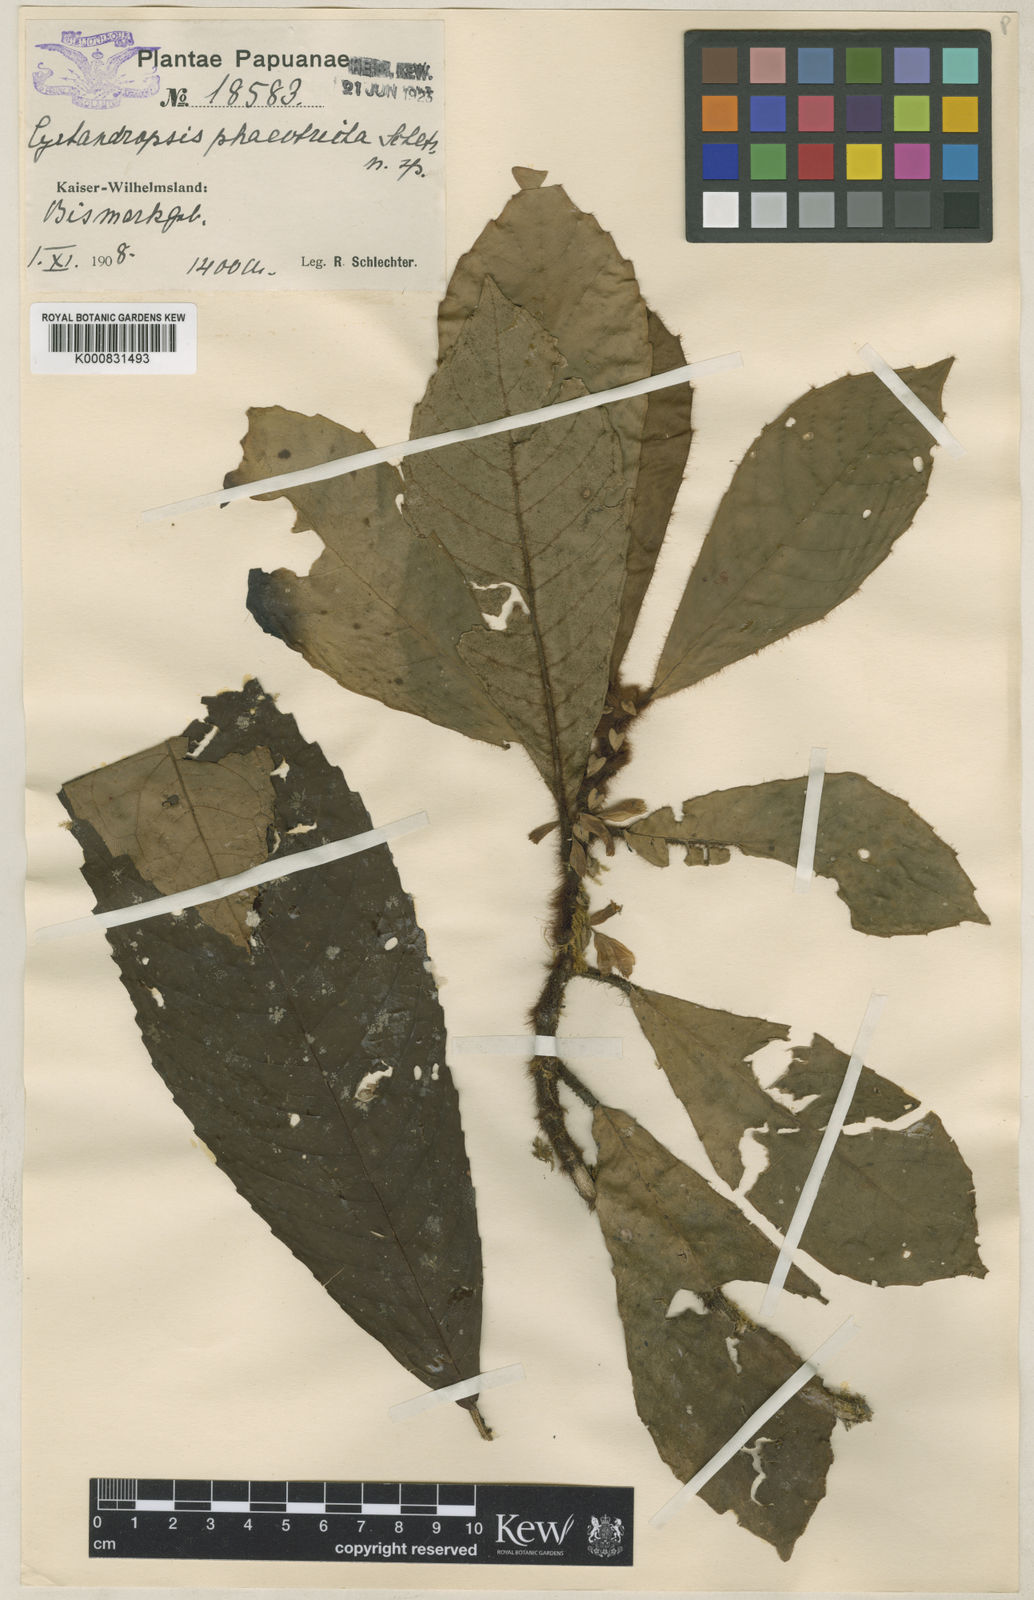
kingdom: Plantae
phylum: Tracheophyta
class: Magnoliopsida
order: Lamiales
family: Gesneriaceae
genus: Cyrtandra
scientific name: Cyrtandra
